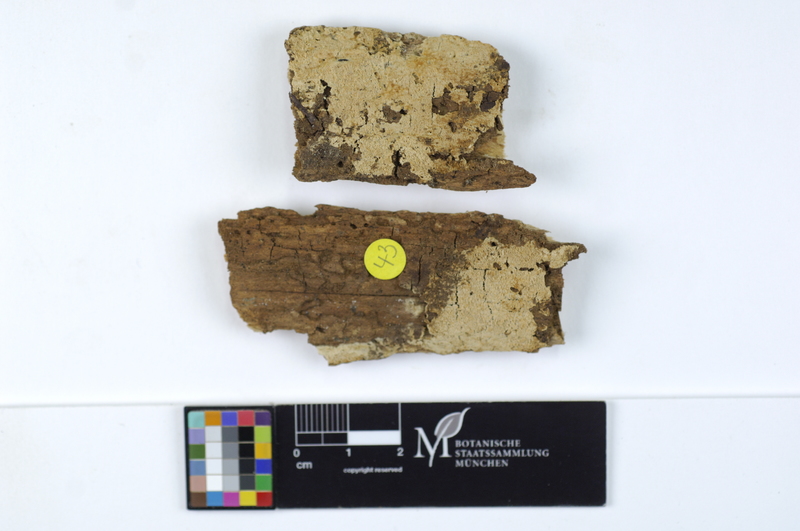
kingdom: Fungi
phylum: Basidiomycota
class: Agaricomycetes
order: Hymenochaetales
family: Schizoporaceae
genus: Fibrodontia
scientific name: Fibrodontia gossypina
